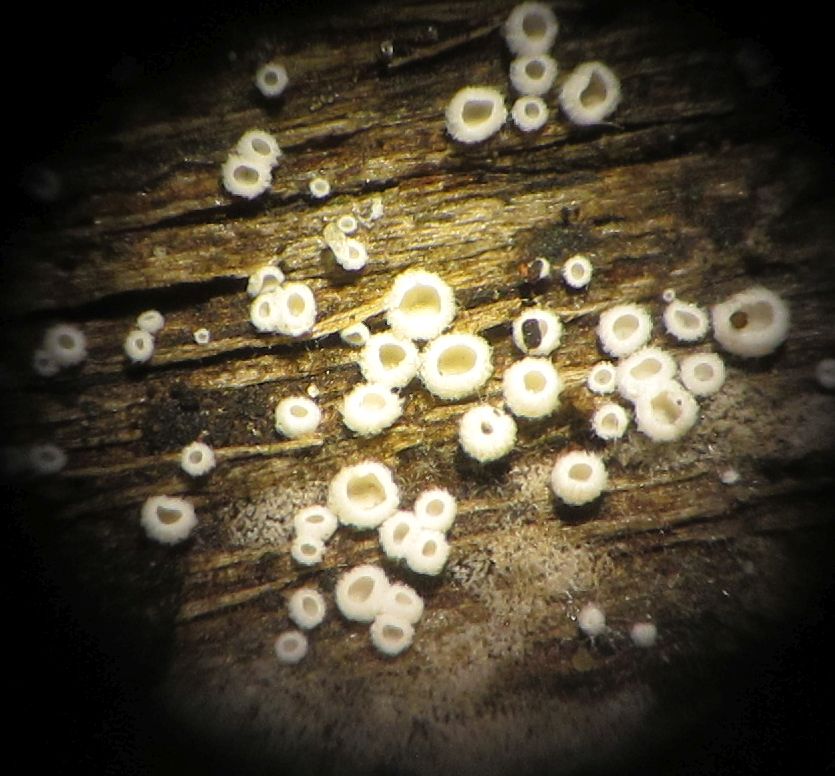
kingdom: Fungi
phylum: Basidiomycota
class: Agaricomycetes
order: Agaricales
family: Niaceae
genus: Lachnella
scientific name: Lachnella alboviolascens
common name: grå frynserede
